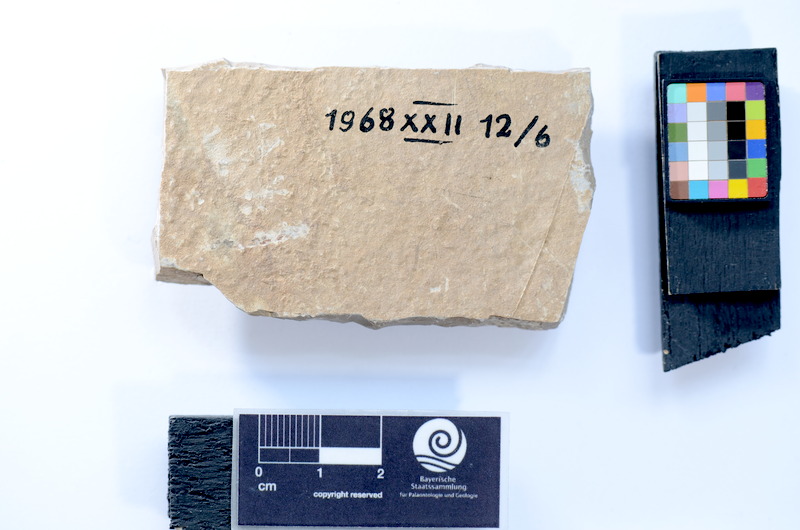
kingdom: Animalia
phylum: Chordata
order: Elopiformes
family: Anaethalionidae
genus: Anaethalion
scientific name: Anaethalion
